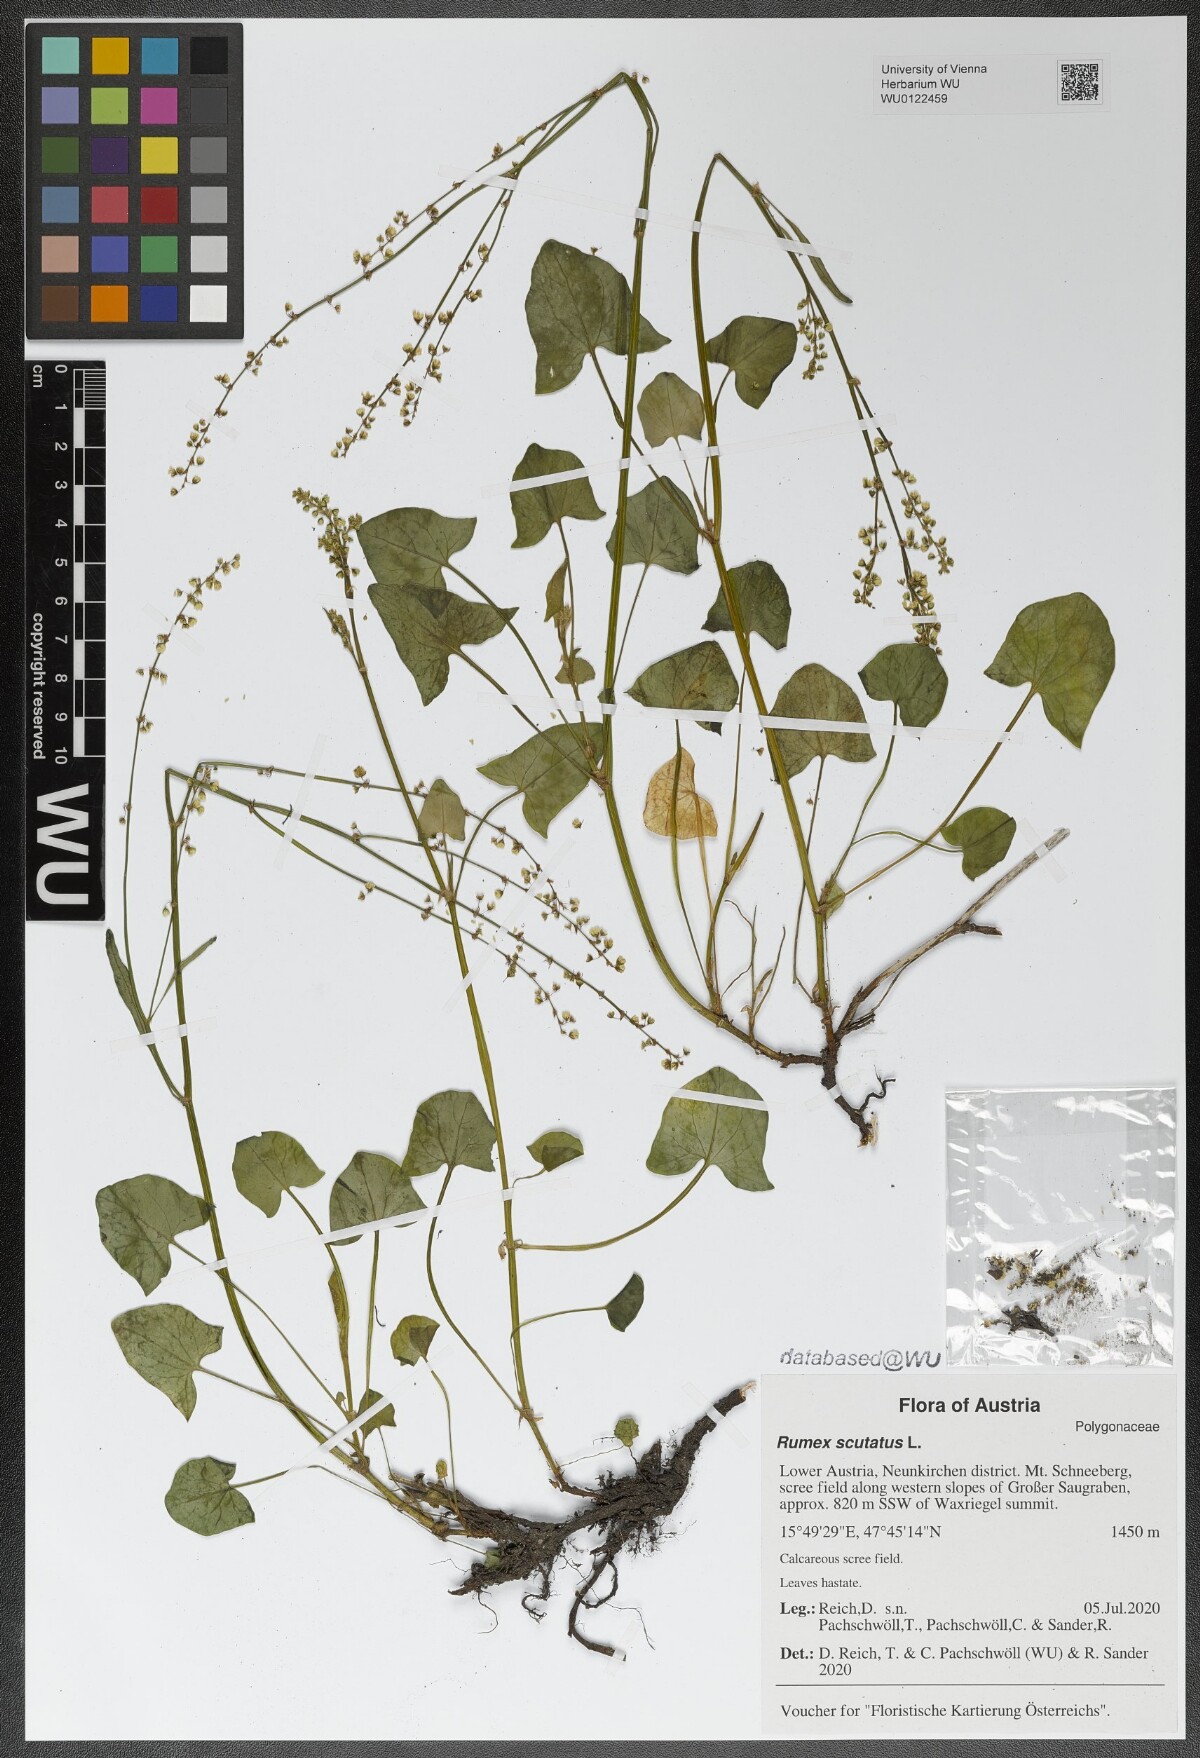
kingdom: Plantae
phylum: Tracheophyta
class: Magnoliopsida
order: Caryophyllales
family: Polygonaceae
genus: Rumex
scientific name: Rumex scutatus
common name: French sorrel
